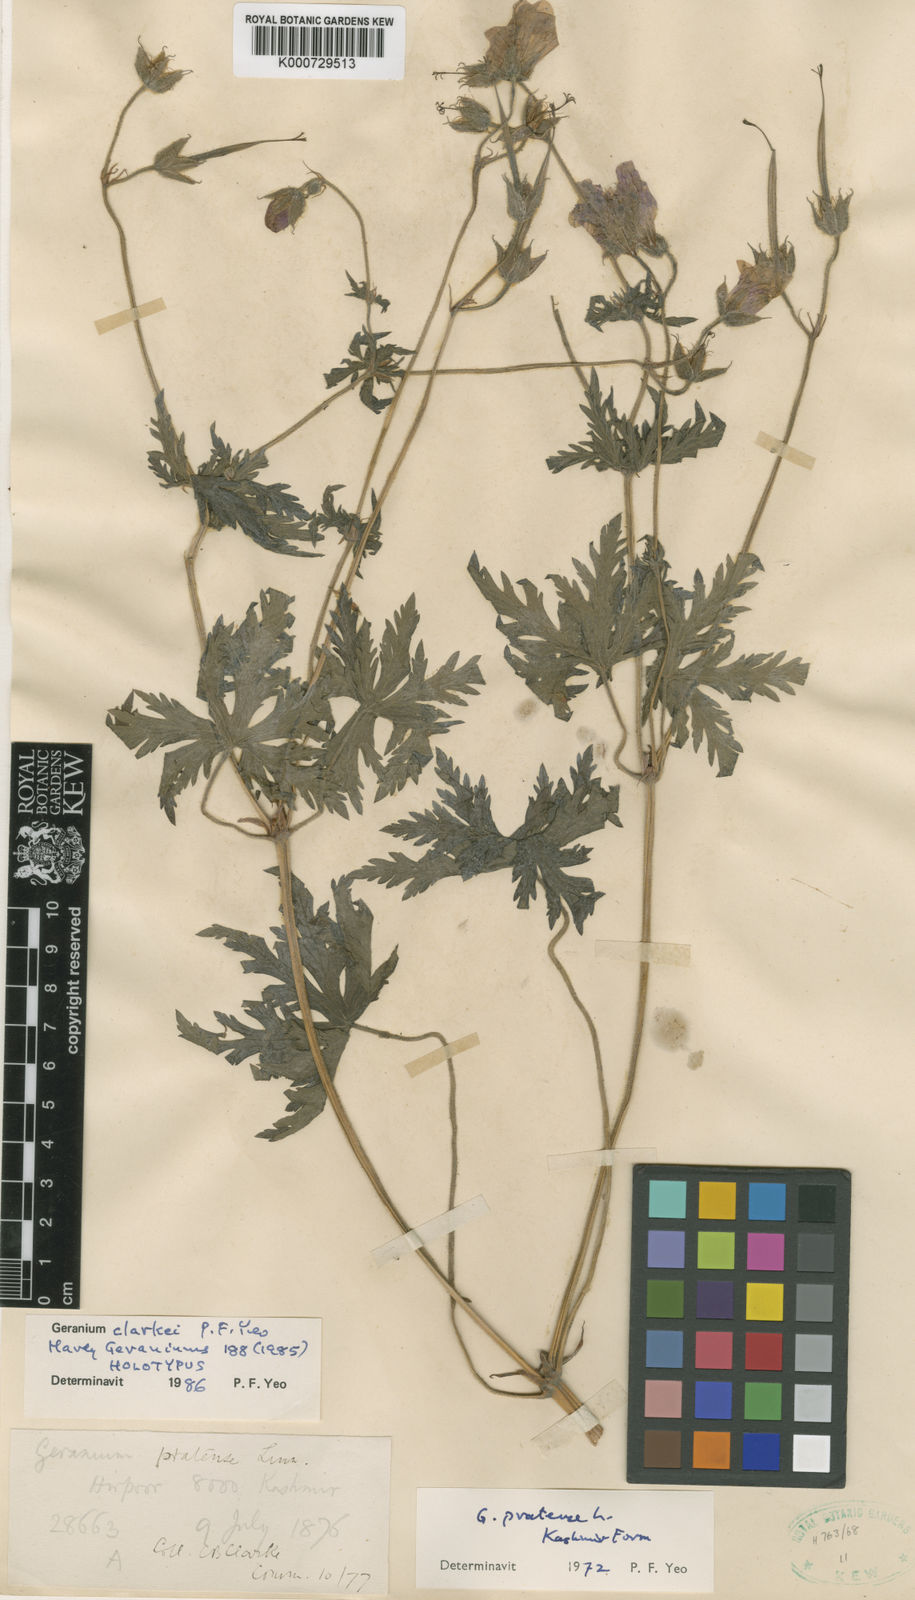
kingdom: Plantae
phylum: Tracheophyta
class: Magnoliopsida
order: Geraniales
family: Geraniaceae
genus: Geranium
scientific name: Geranium clarkei
